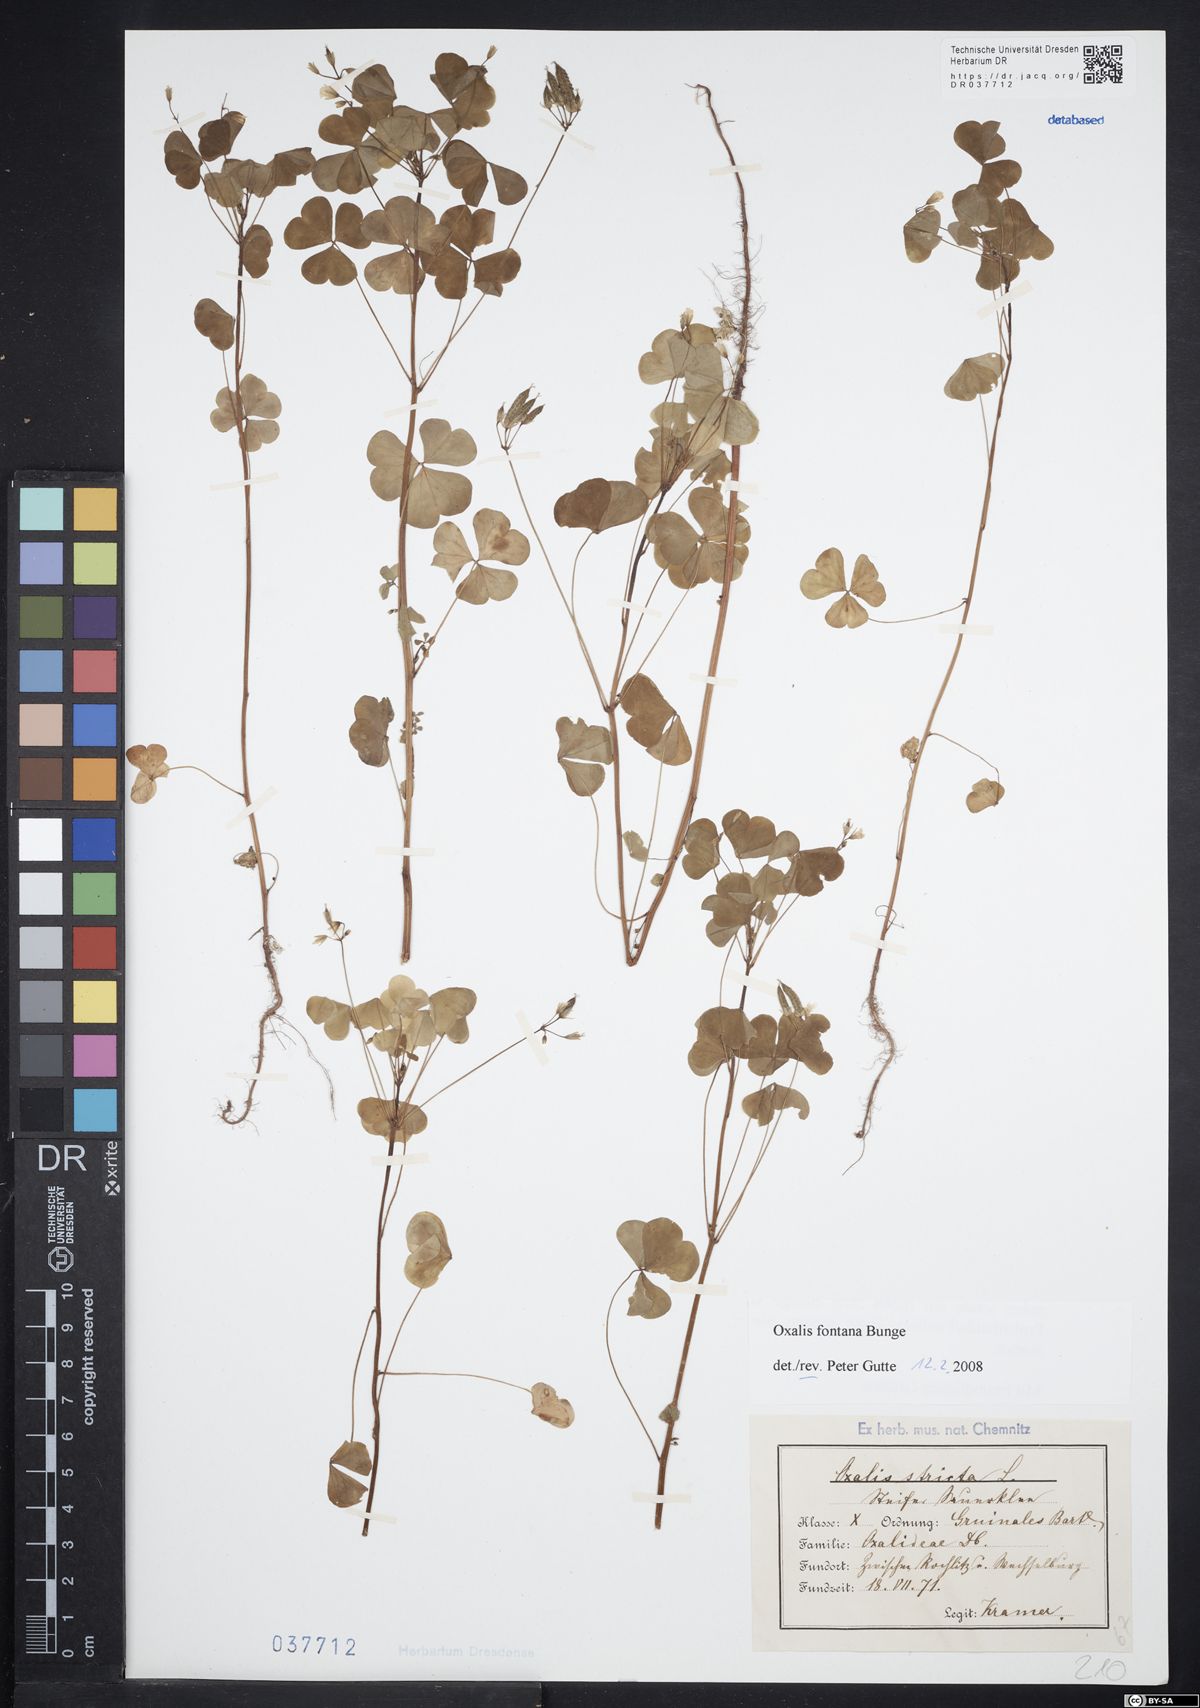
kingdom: Plantae
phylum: Tracheophyta
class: Magnoliopsida
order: Oxalidales
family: Oxalidaceae
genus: Oxalis
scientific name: Oxalis stricta
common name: Upright yellow-sorrel
